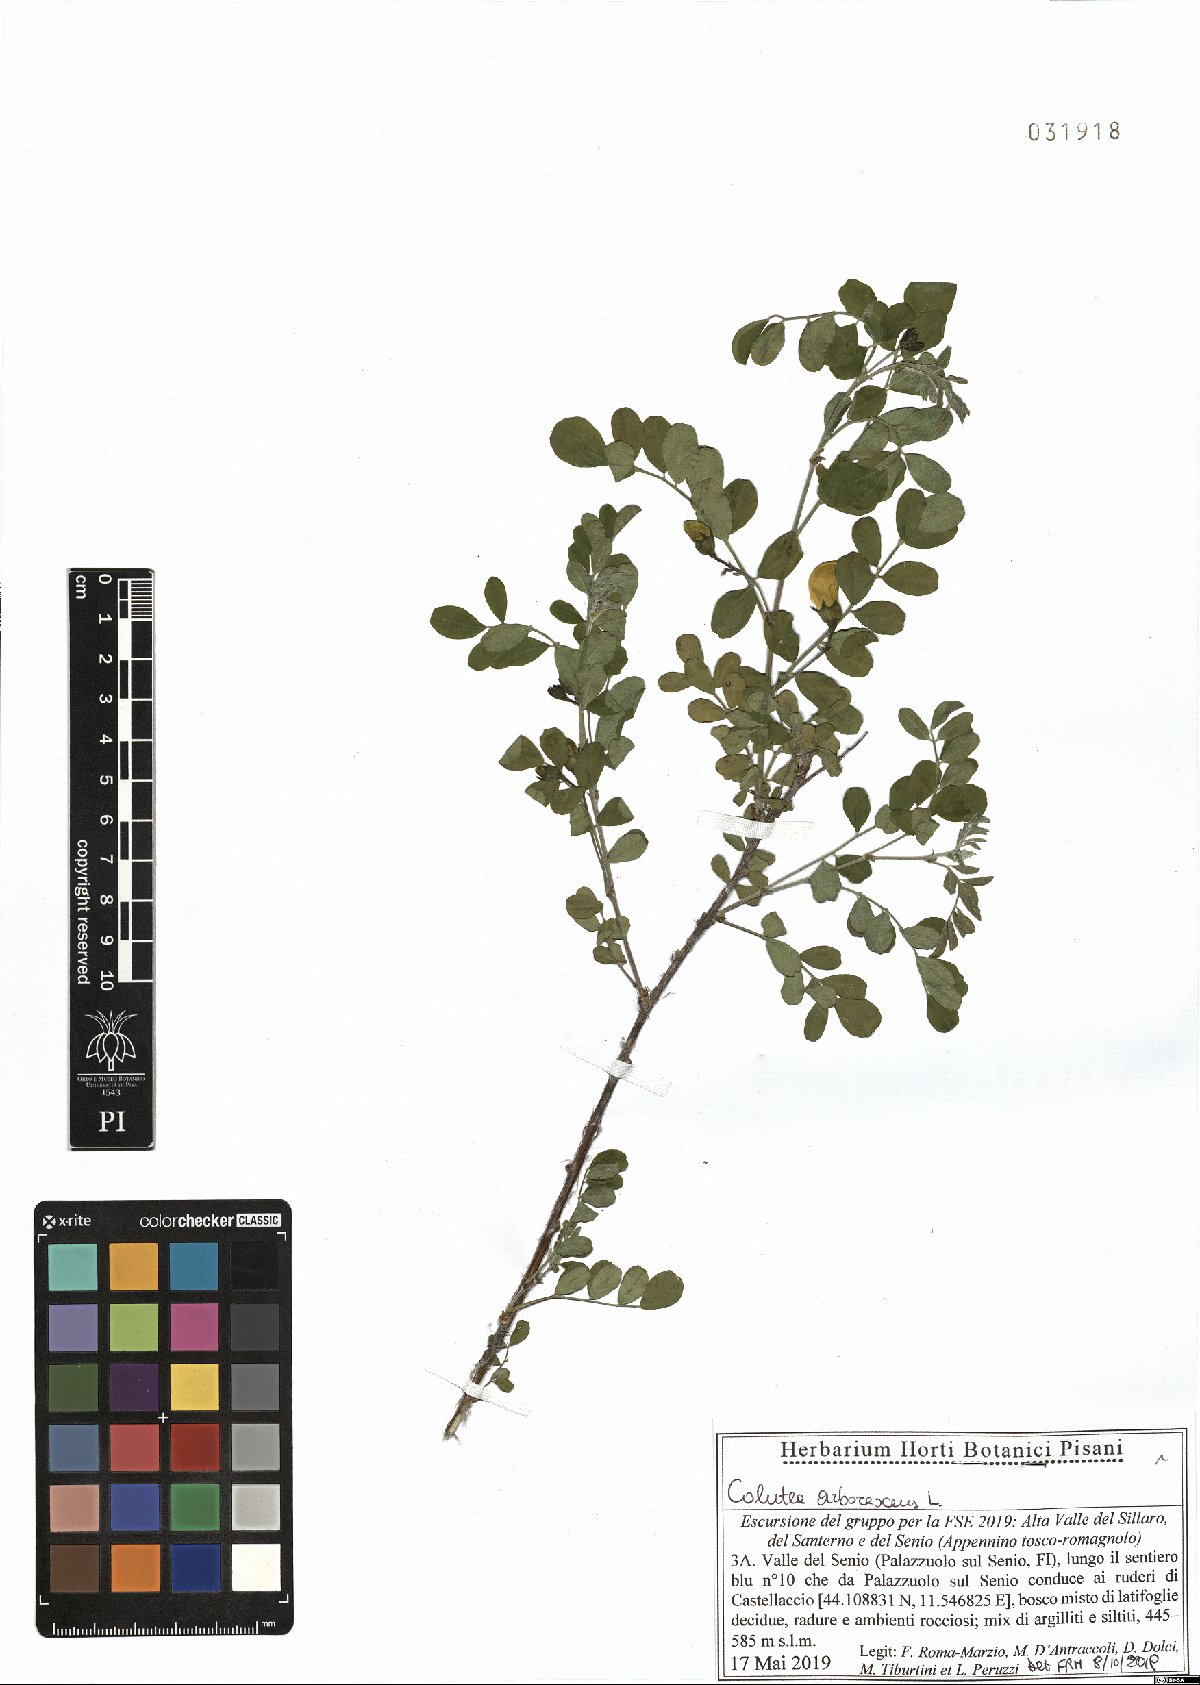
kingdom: Plantae
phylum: Tracheophyta
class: Magnoliopsida
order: Fabales
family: Fabaceae
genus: Colutea
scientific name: Colutea arborescens
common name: Bladder-senna
